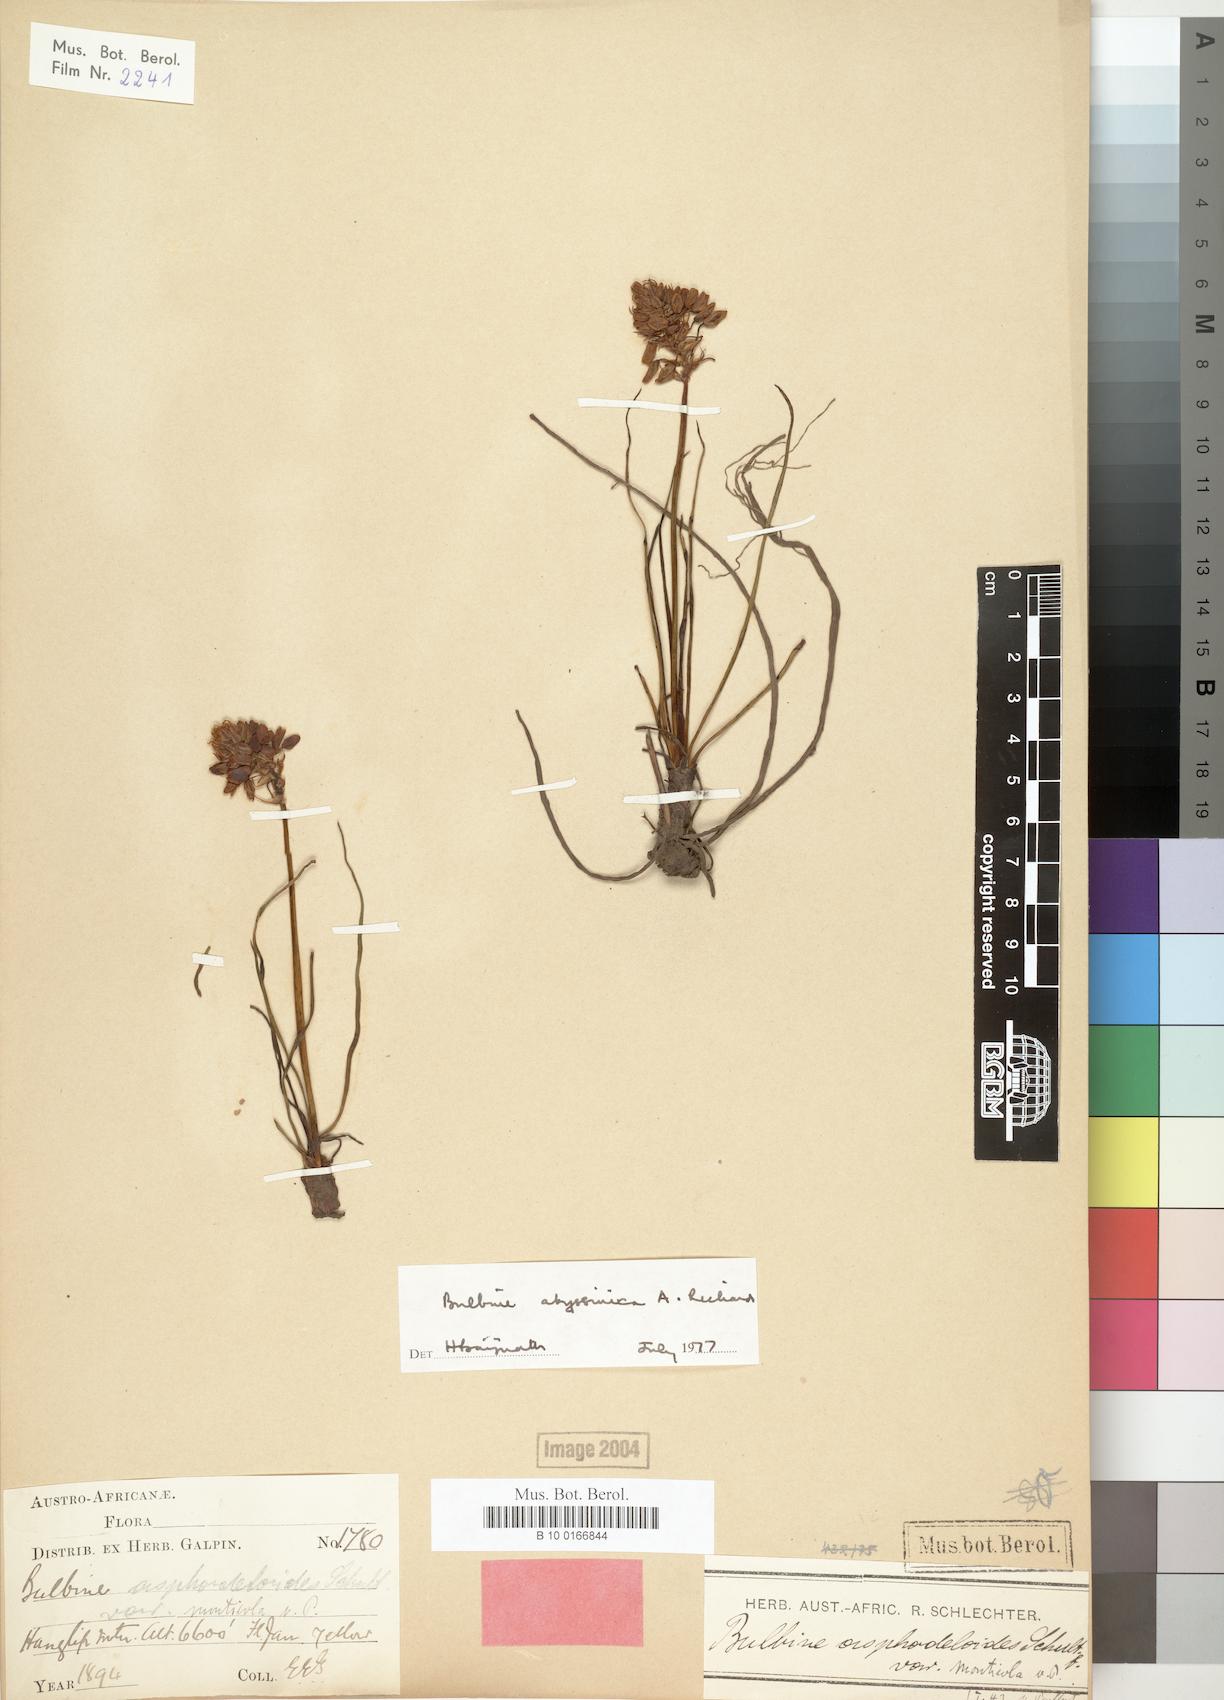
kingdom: Plantae
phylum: Tracheophyta
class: Liliopsida
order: Asparagales
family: Asphodelaceae
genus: Bulbine
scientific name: Bulbine abyssinica
